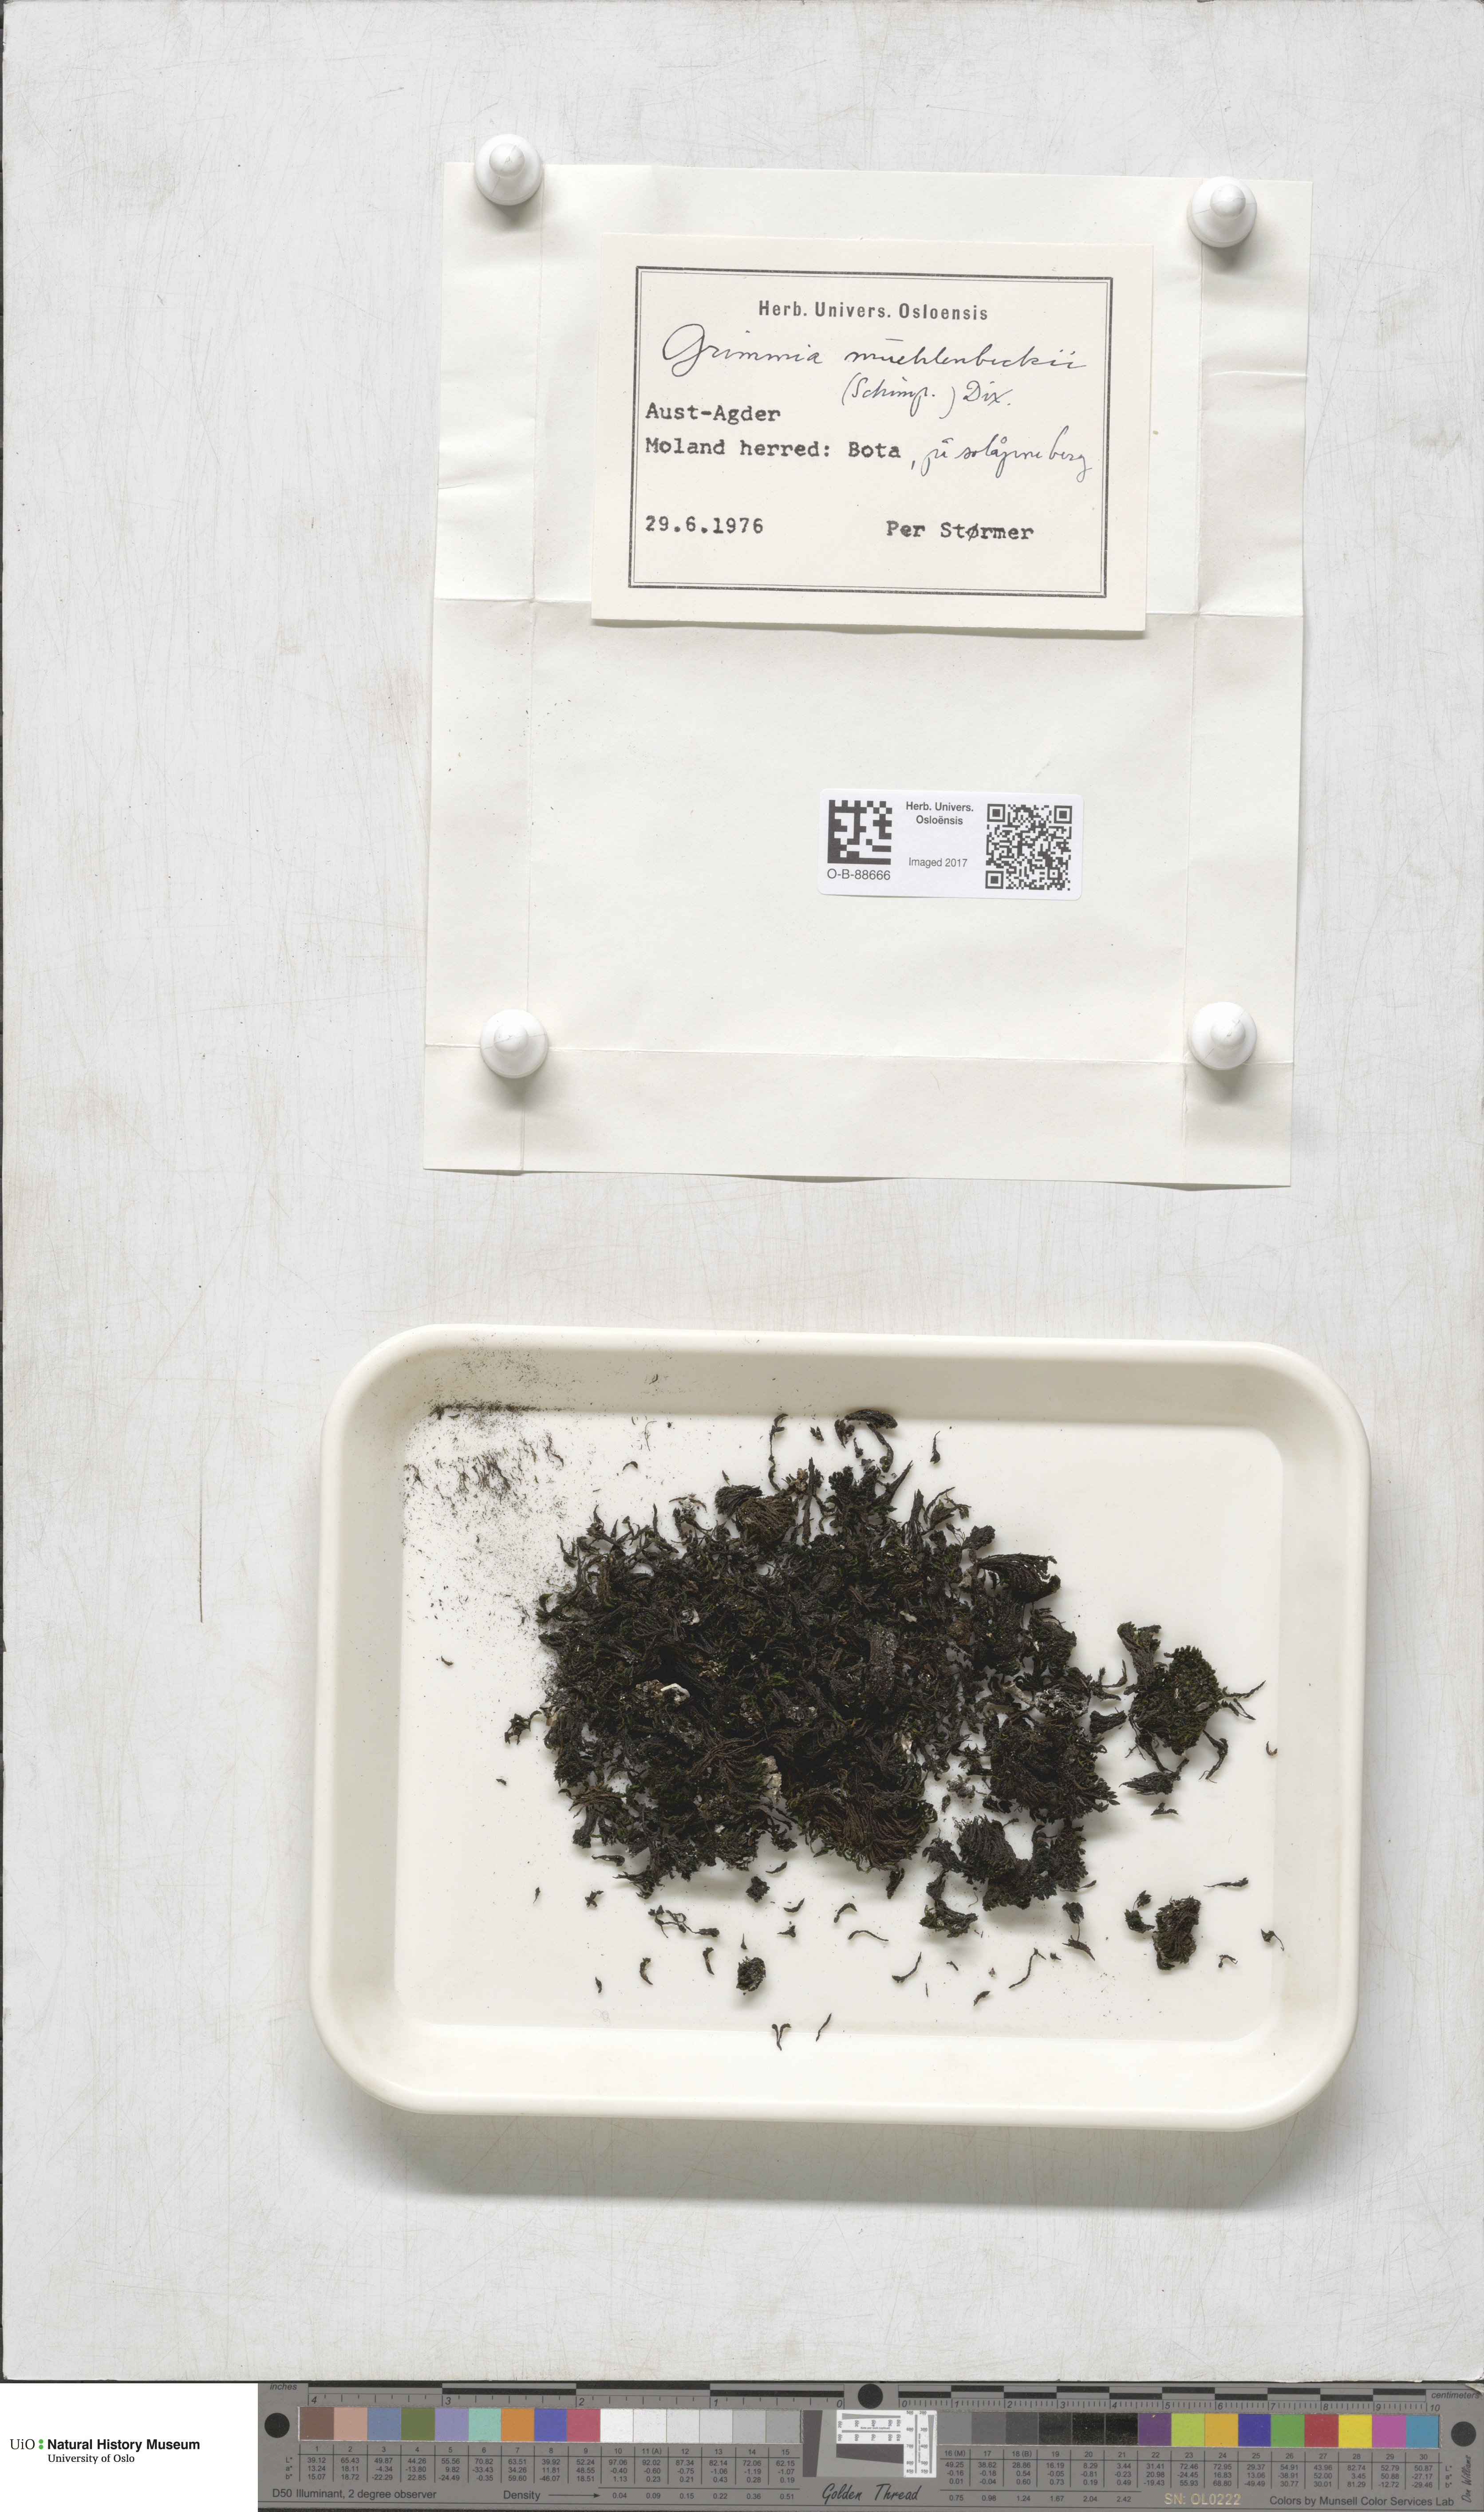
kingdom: Plantae
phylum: Bryophyta
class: Bryopsida
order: Grimmiales
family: Grimmiaceae
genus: Grimmia
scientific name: Grimmia trichophylla
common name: Hair-pointed grimmia
